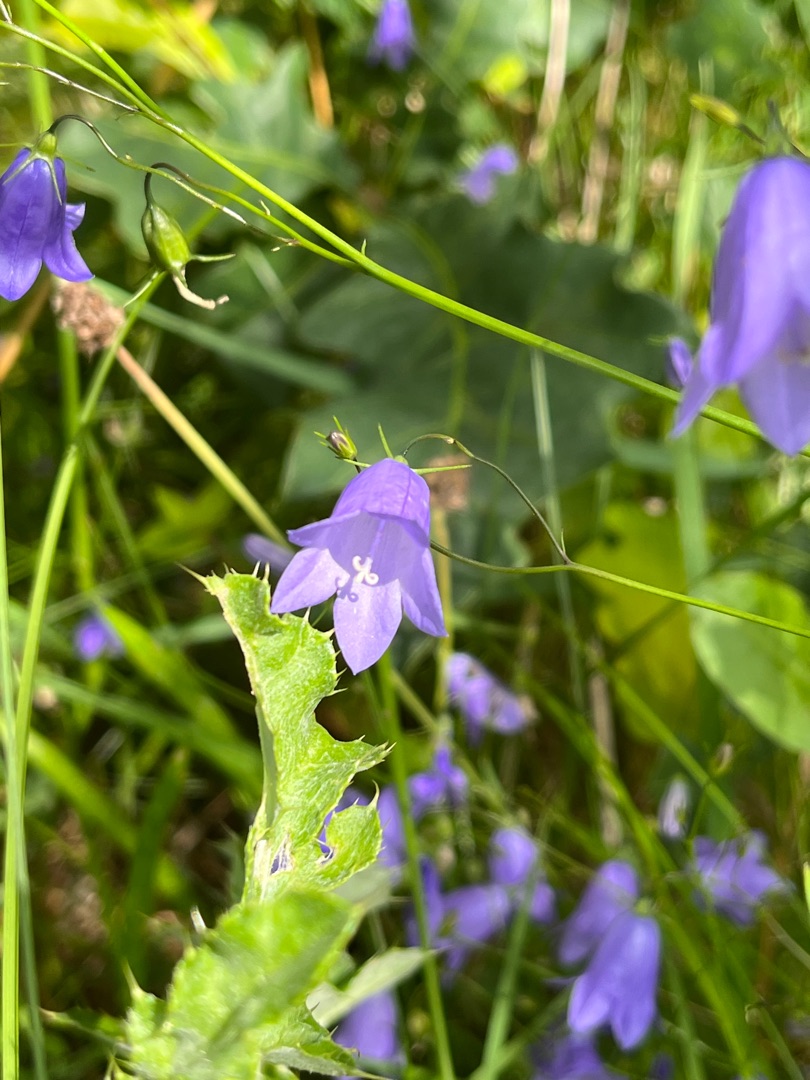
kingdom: Plantae
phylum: Tracheophyta
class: Magnoliopsida
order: Asterales
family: Campanulaceae
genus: Campanula
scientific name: Campanula rotundifolia
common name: Liden klokke
